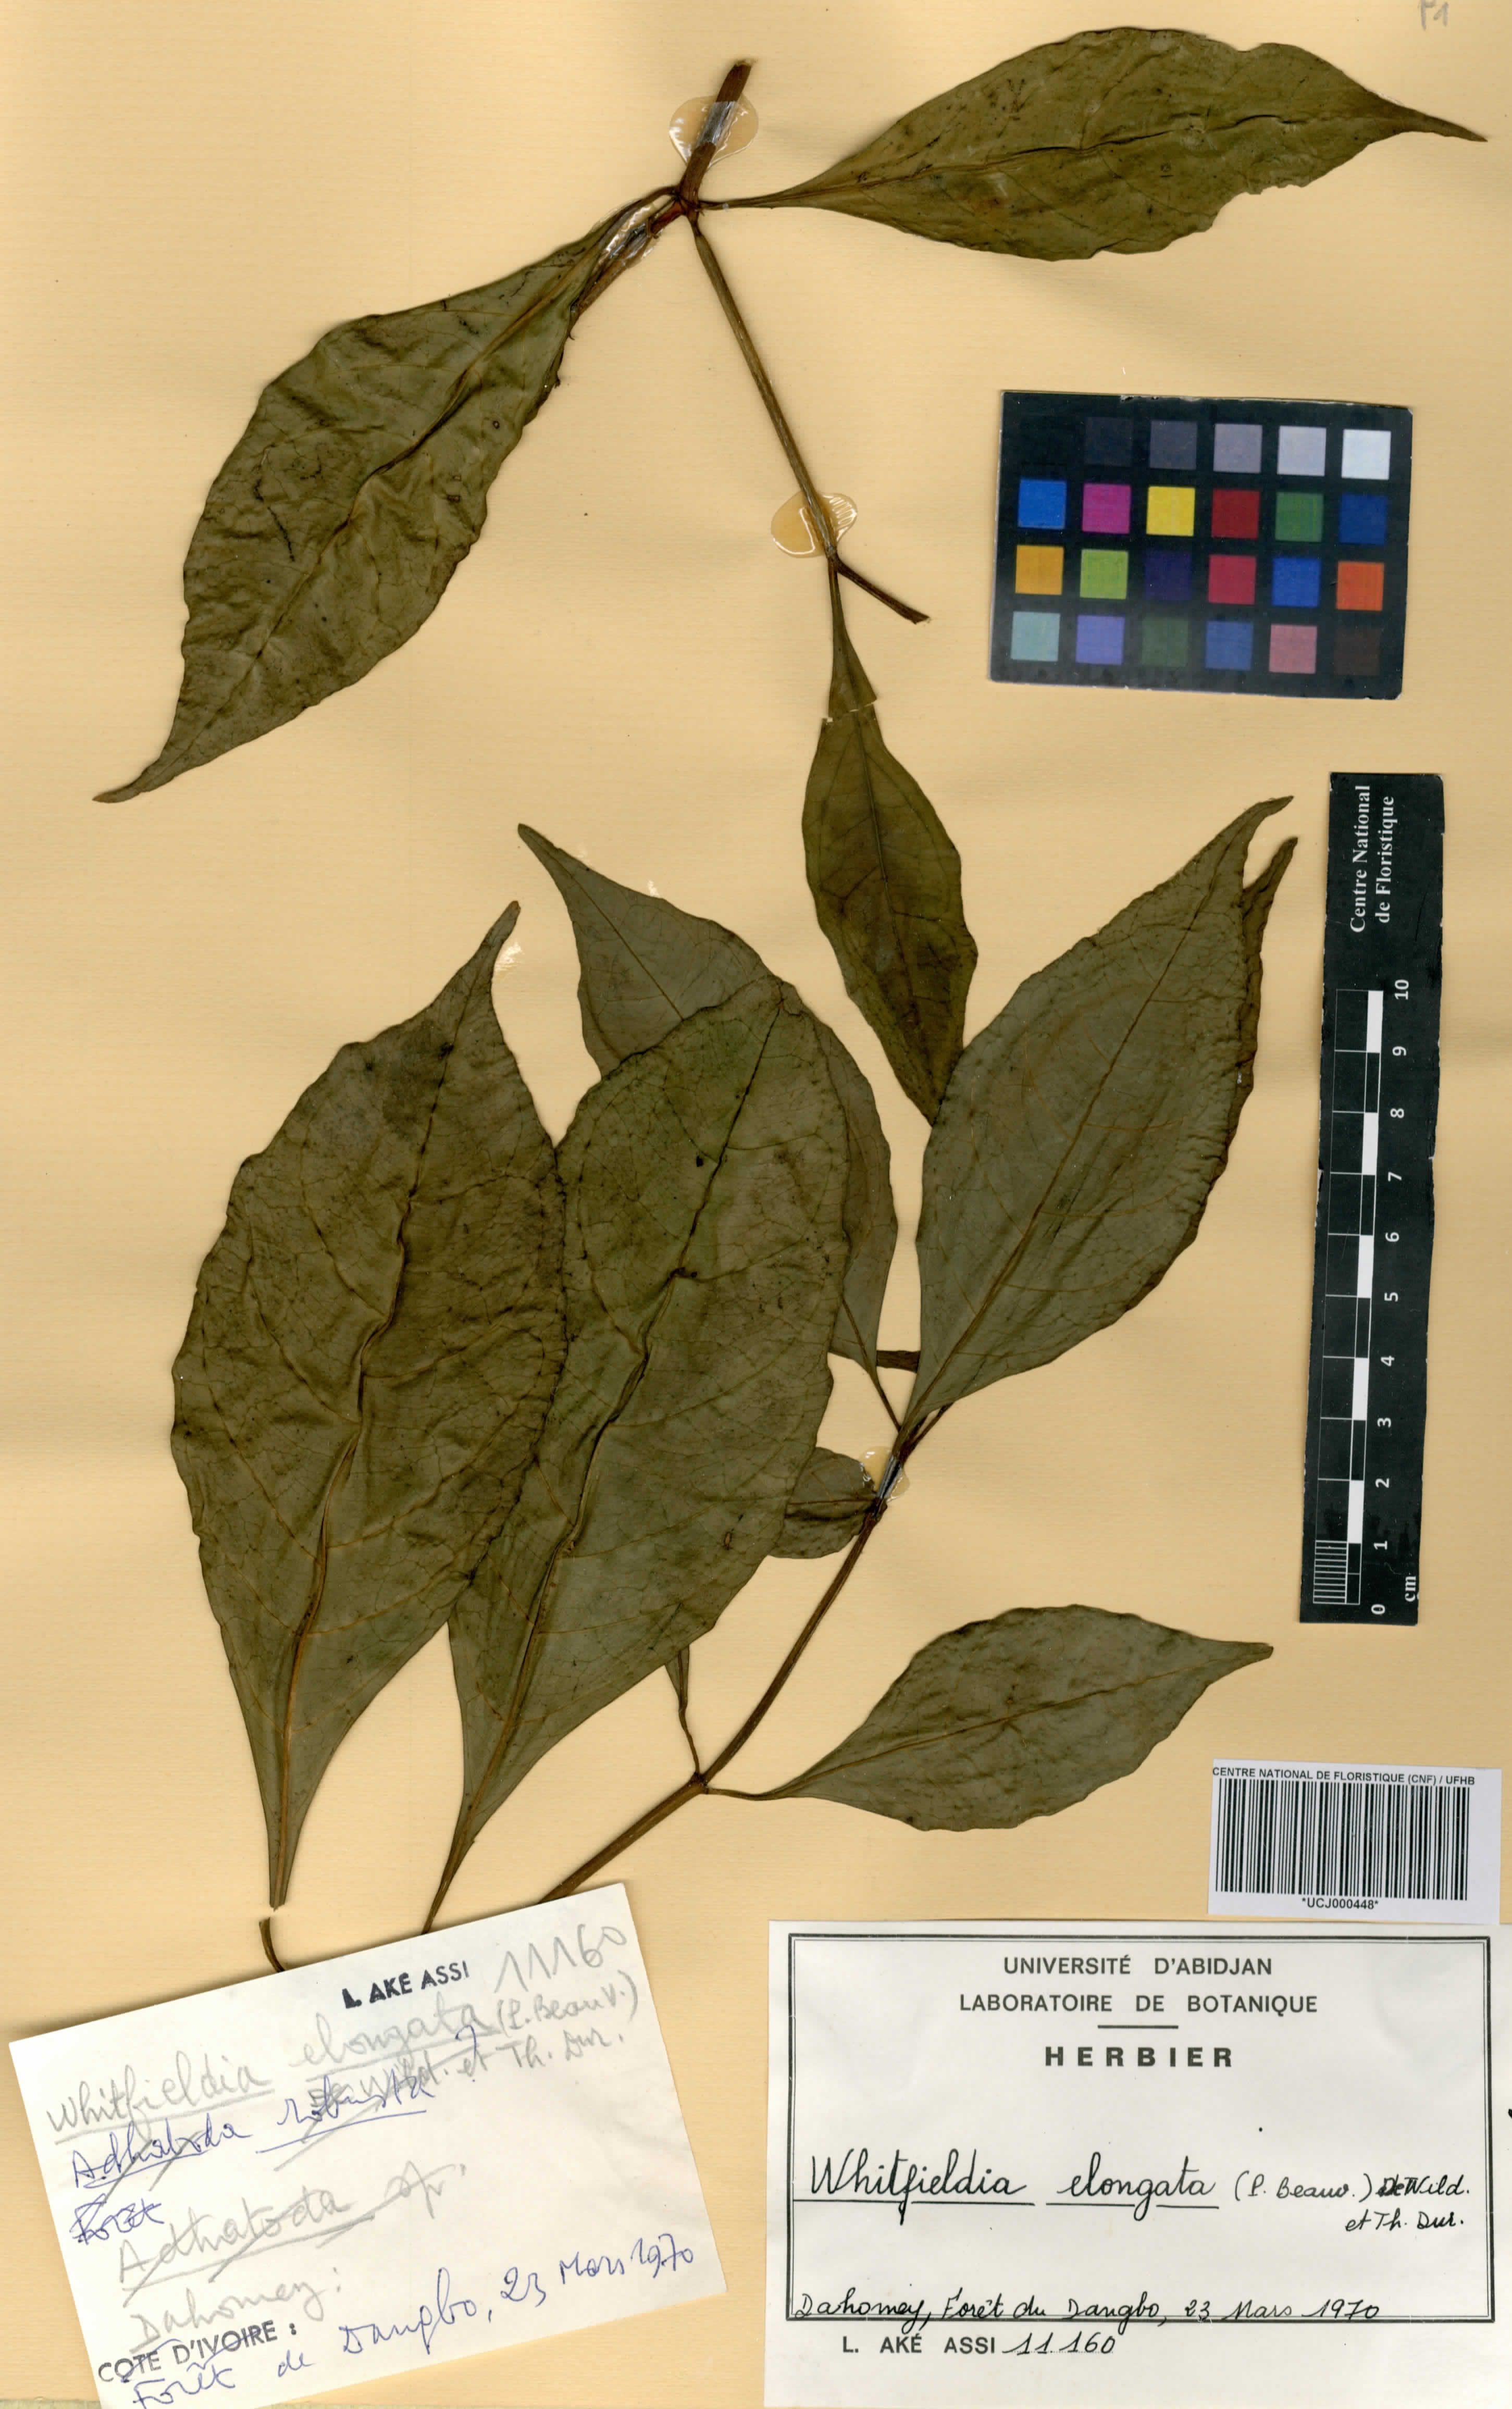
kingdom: Plantae
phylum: Tracheophyta
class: Magnoliopsida
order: Lamiales
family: Acanthaceae
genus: Whitfieldia
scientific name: Whitfieldia elongata
